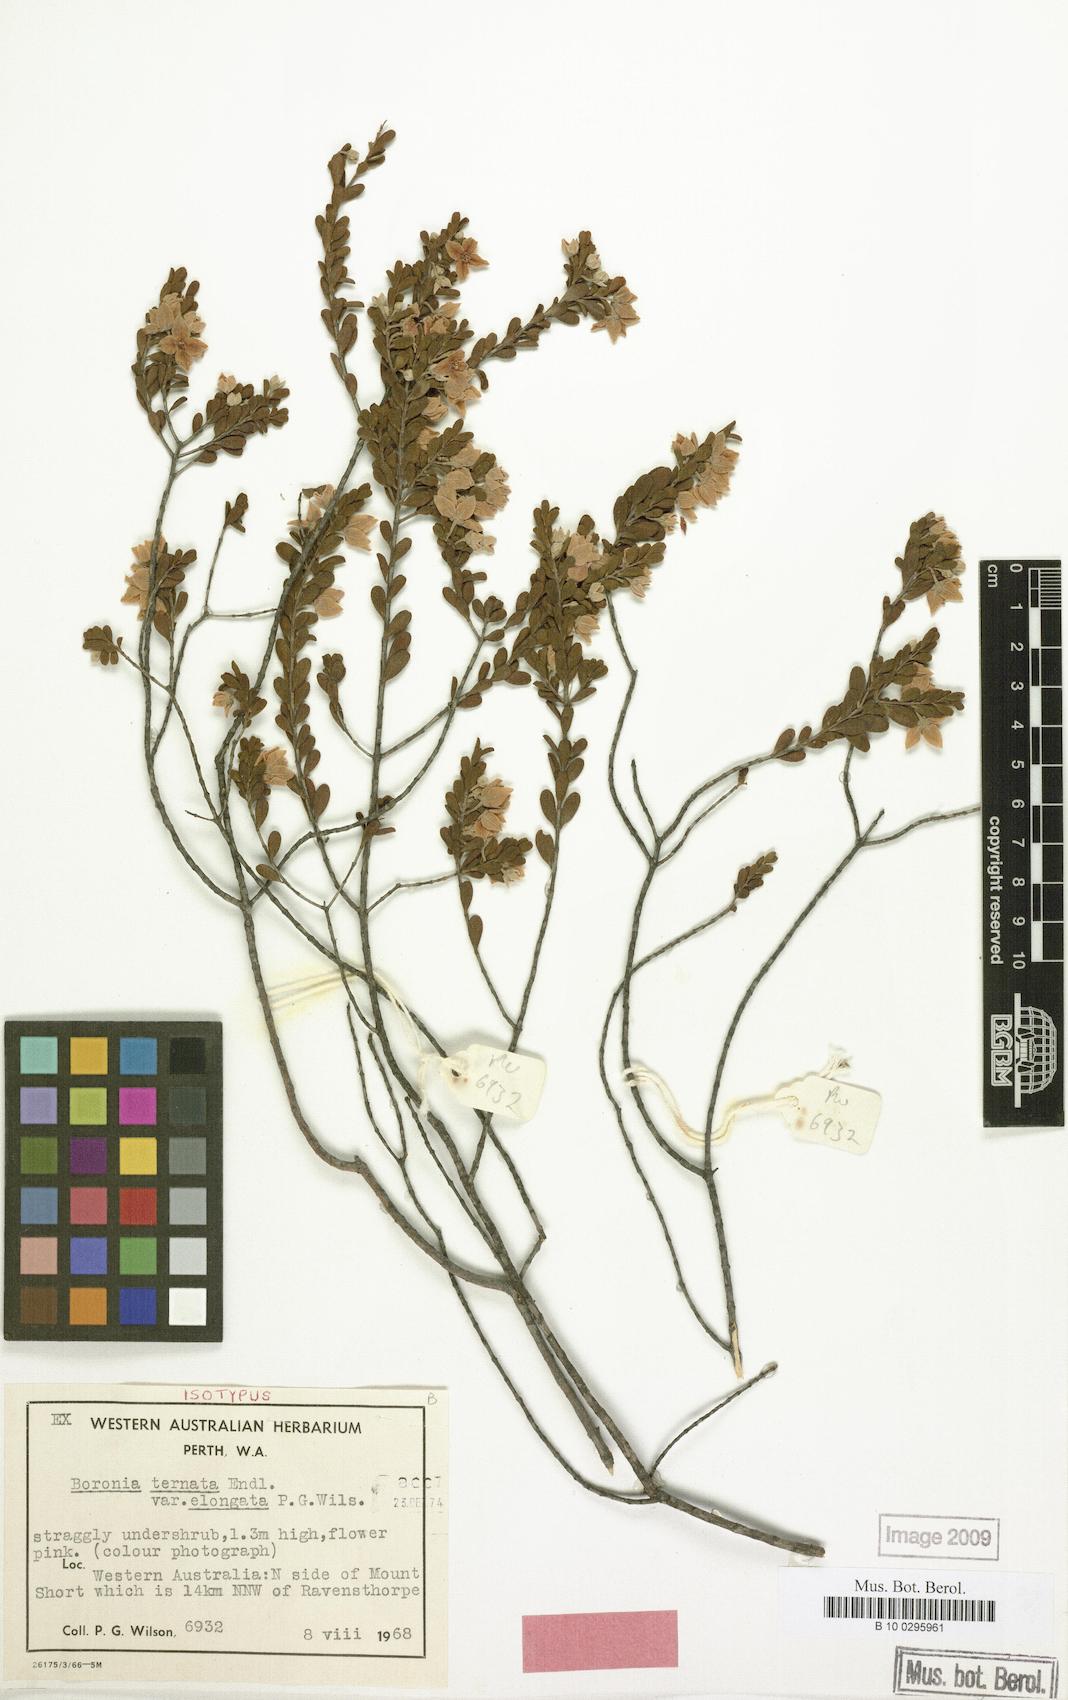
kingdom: Plantae
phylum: Tracheophyta
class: Magnoliopsida
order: Sapindales
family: Rutaceae
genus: Boronia
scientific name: Boronia ternata
